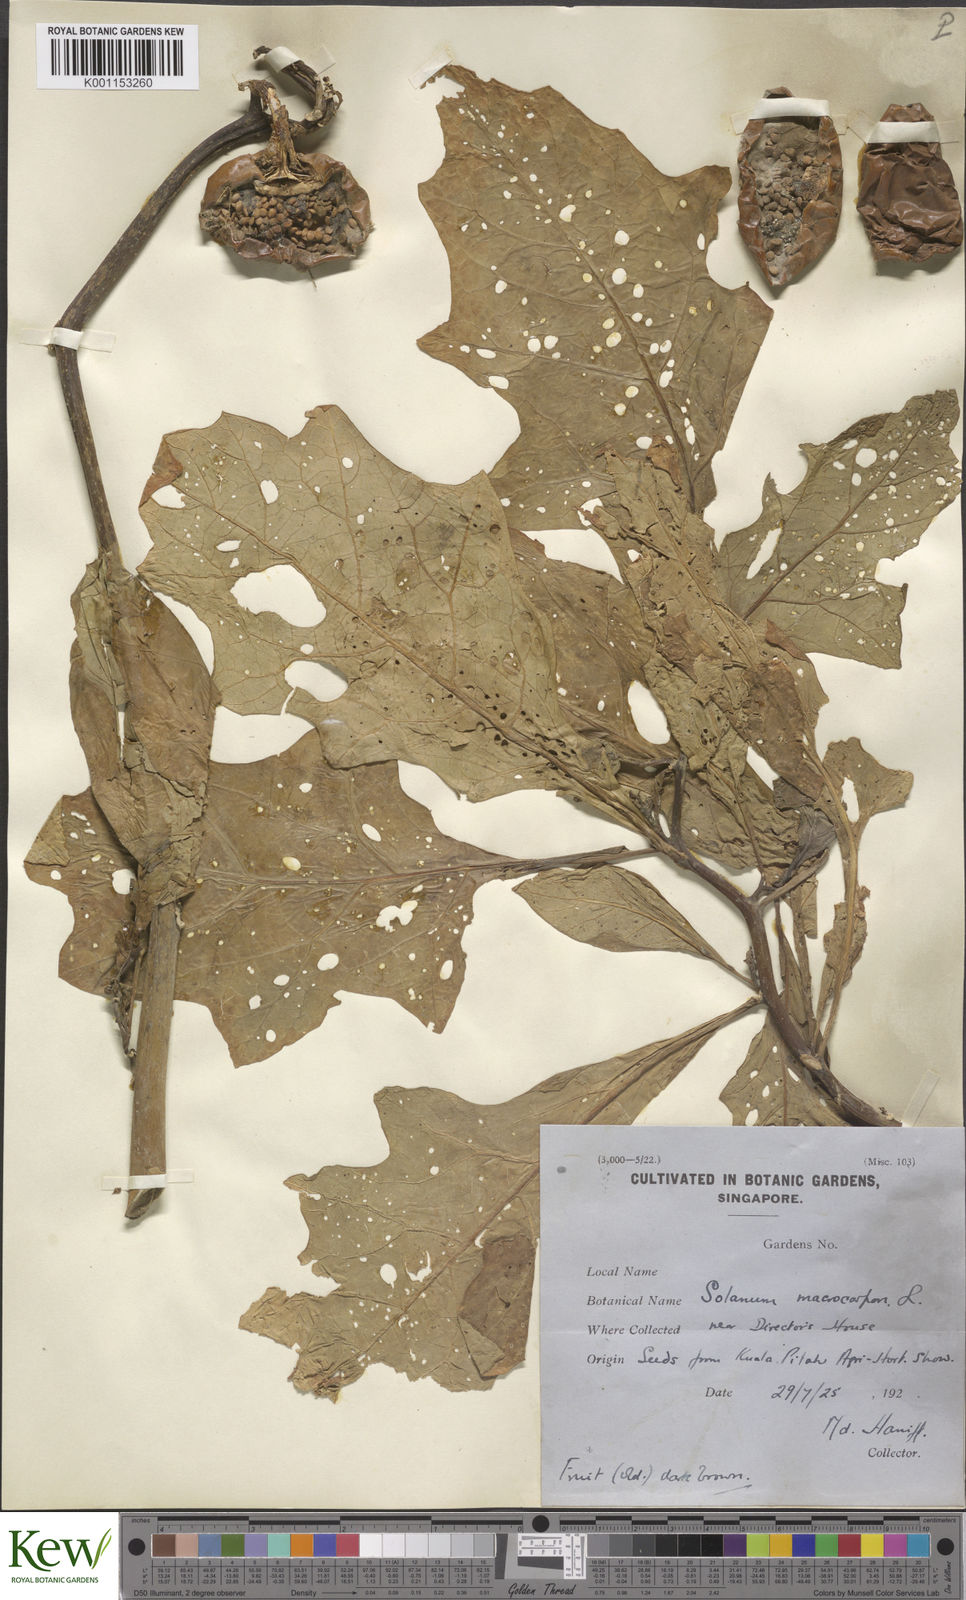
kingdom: Plantae
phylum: Tracheophyta
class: Magnoliopsida
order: Solanales
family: Solanaceae
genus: Solanum
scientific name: Solanum macrocarpon
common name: African eggplant
